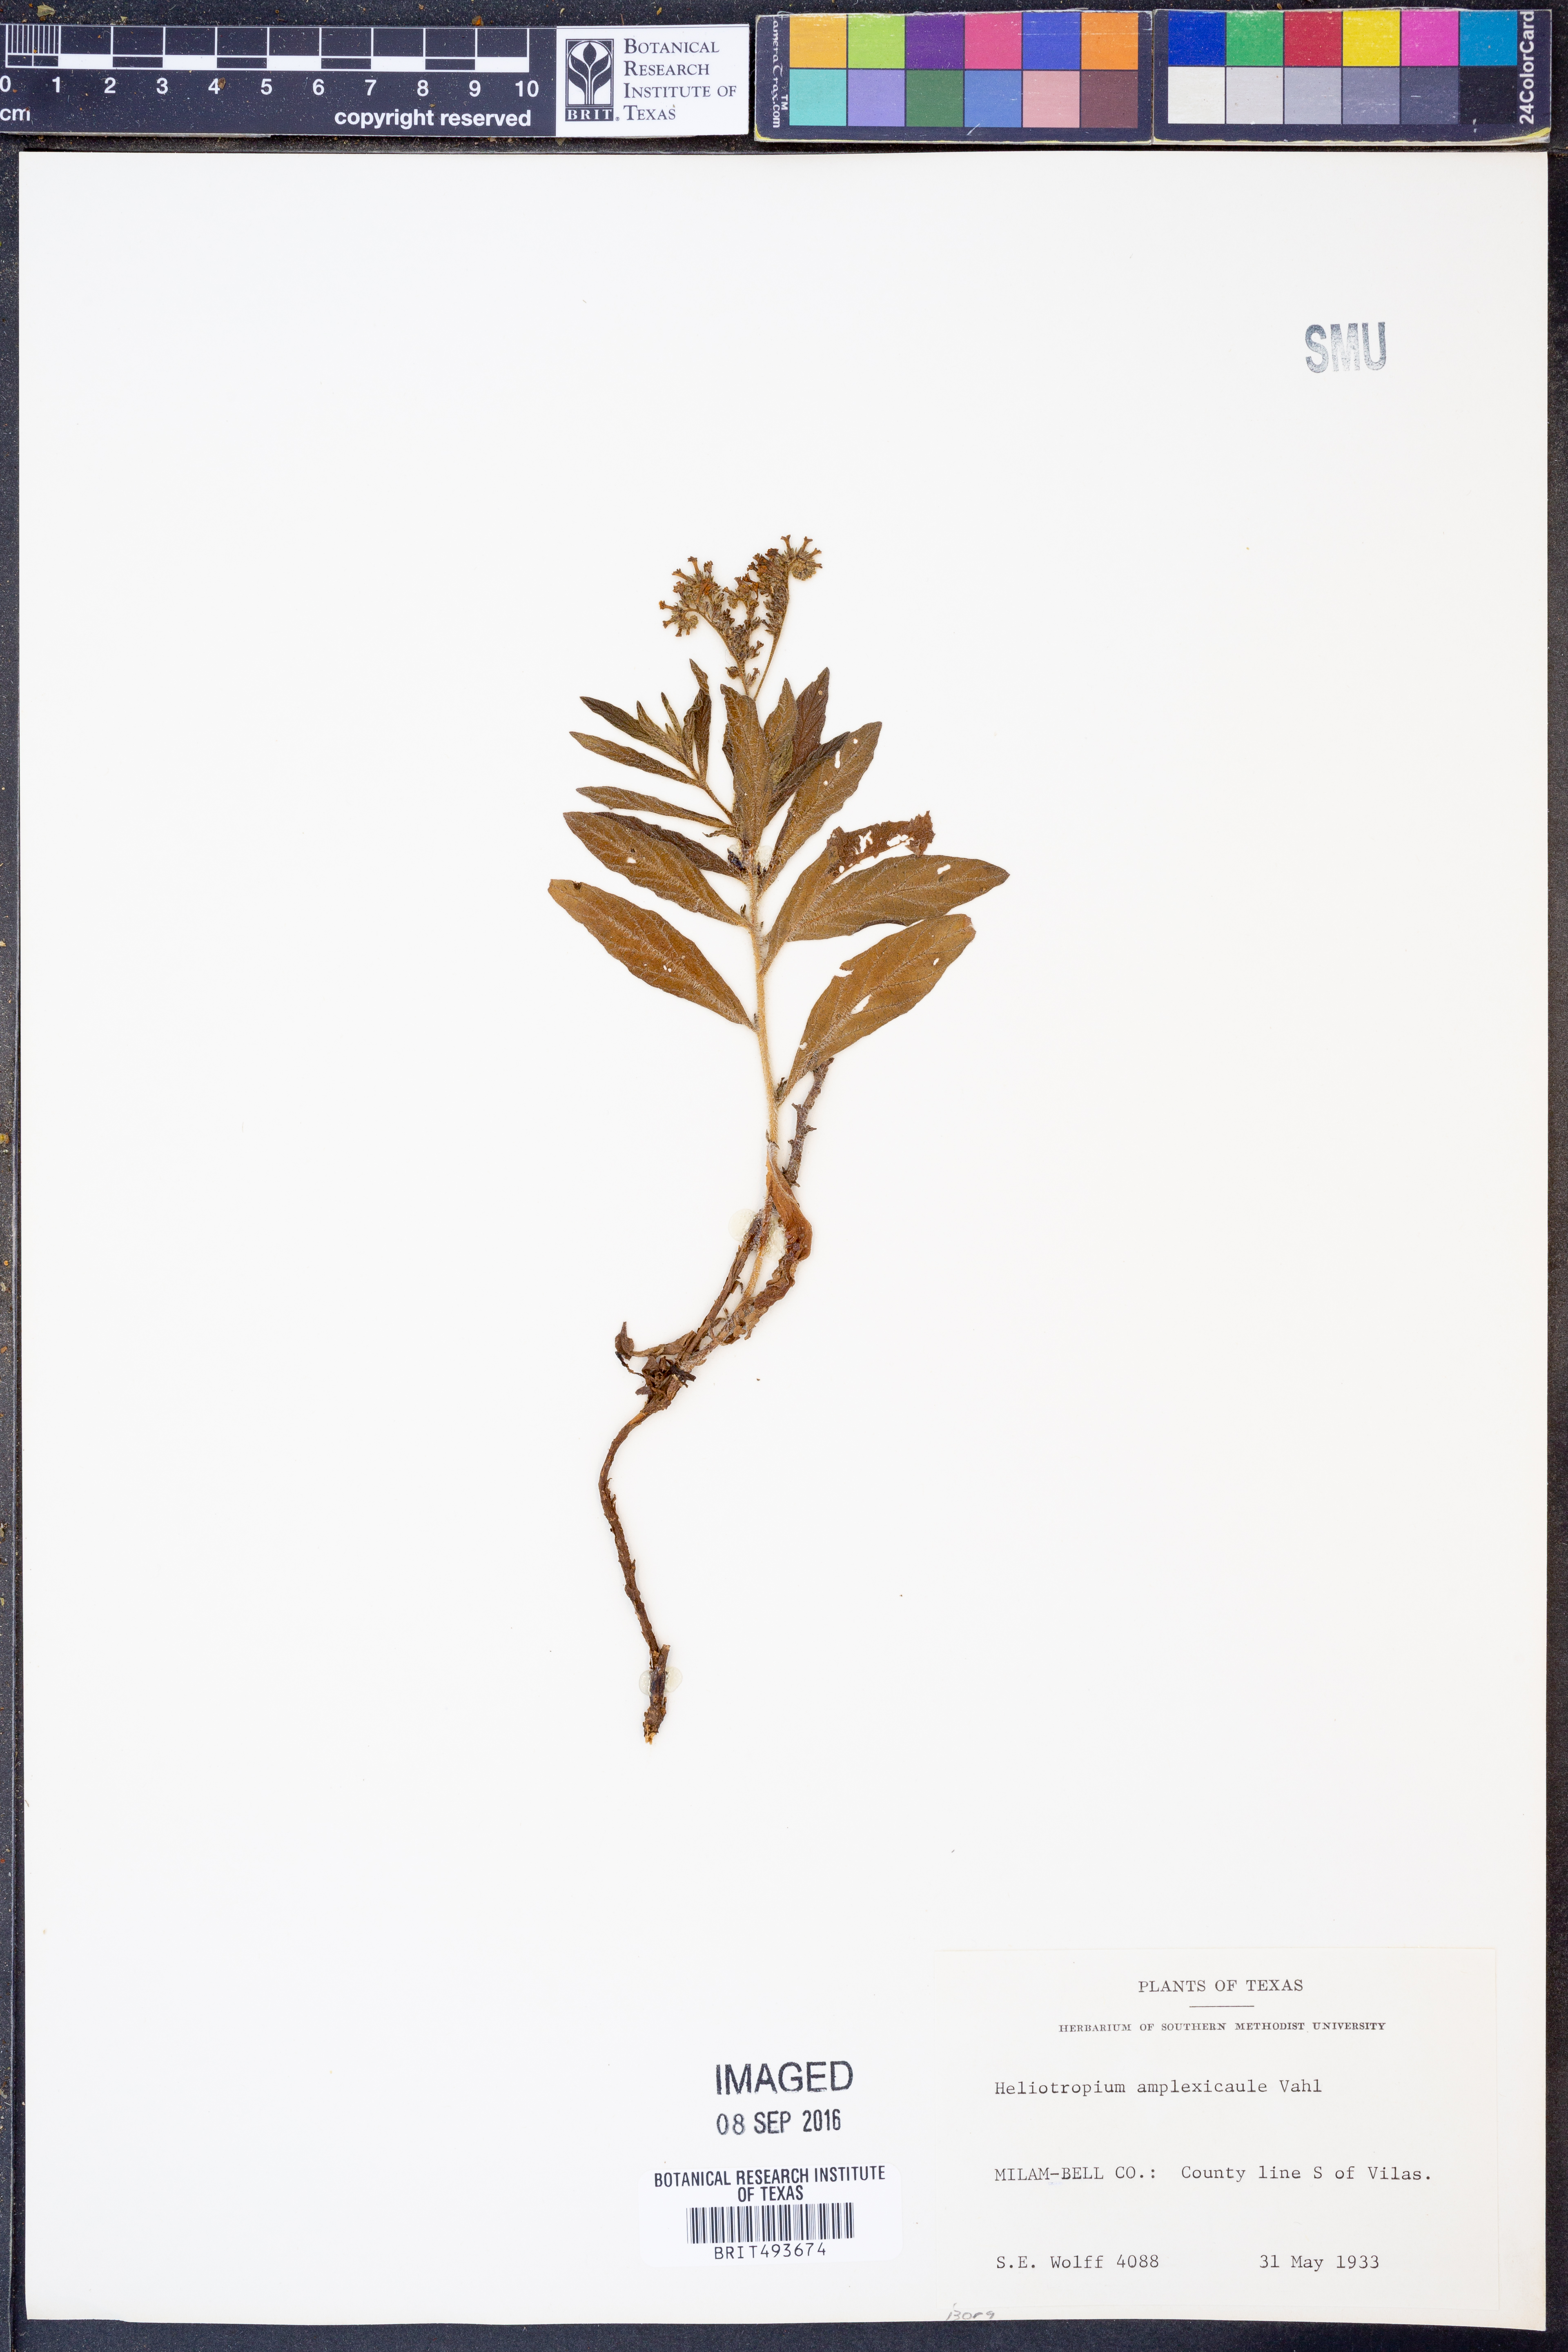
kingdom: Plantae
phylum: Tracheophyta
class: Magnoliopsida
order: Boraginales
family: Heliotropiaceae
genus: Heliotropium
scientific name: Heliotropium amplexicaule
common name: Clasping heliotrope
